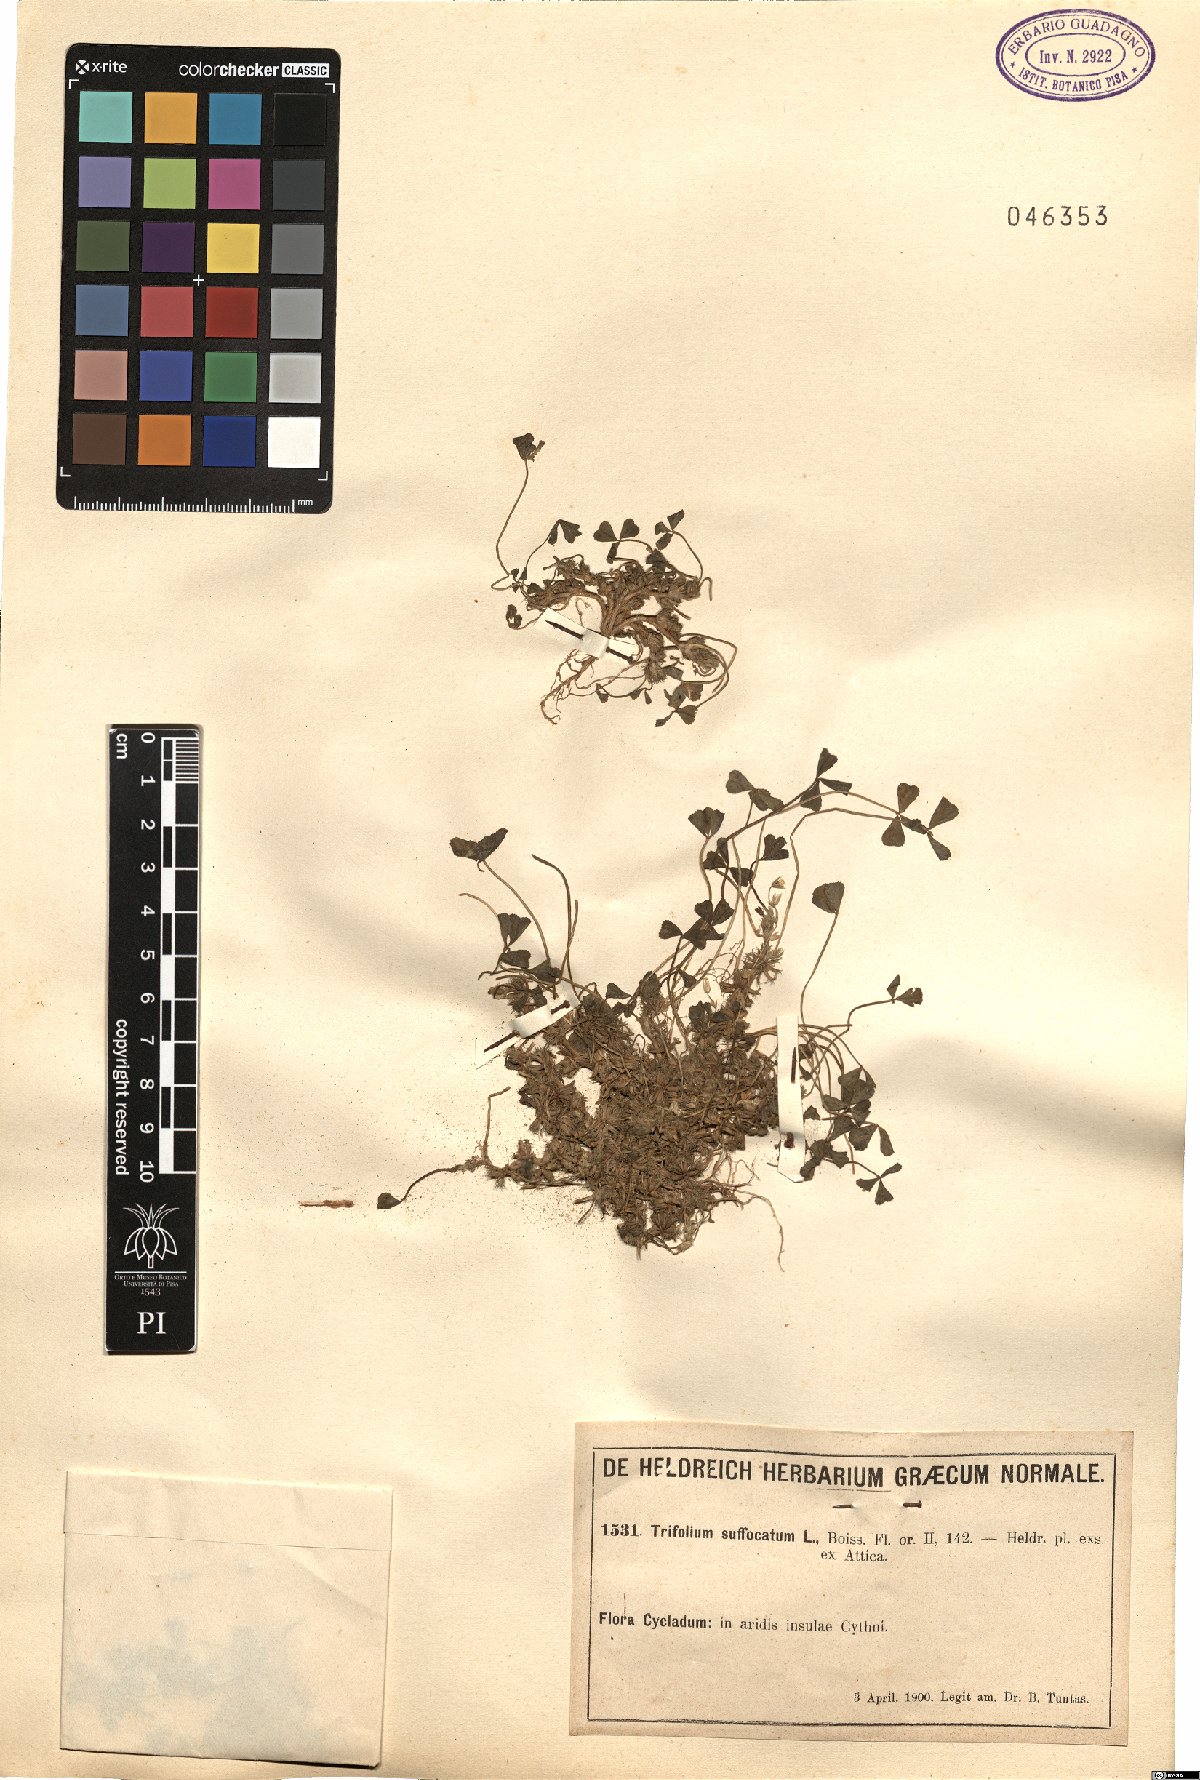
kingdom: Plantae
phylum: Tracheophyta
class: Magnoliopsida
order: Fabales
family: Fabaceae
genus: Trifolium
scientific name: Trifolium suffocatum
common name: Suffocated clover
